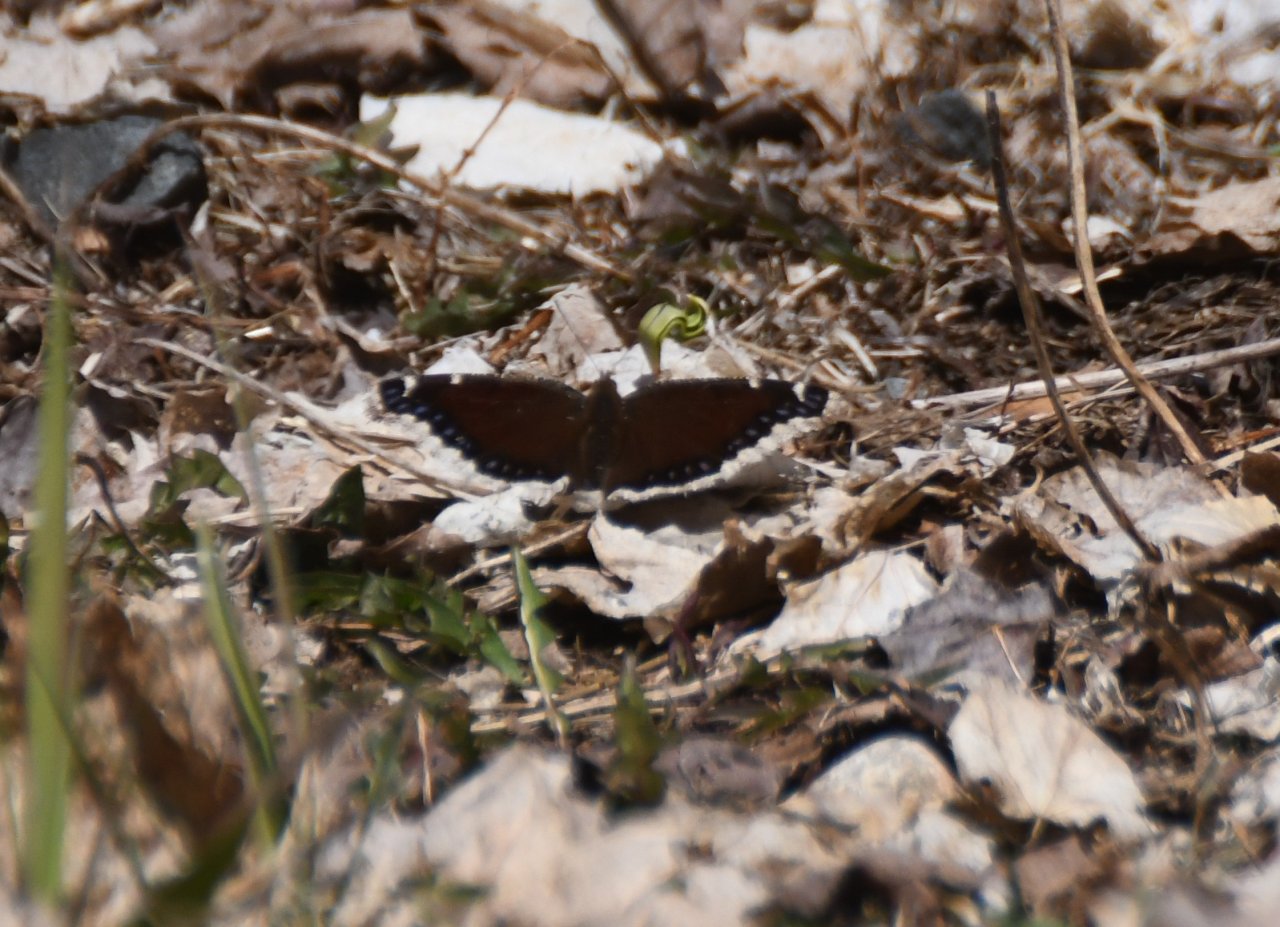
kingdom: Animalia
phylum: Arthropoda
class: Insecta
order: Lepidoptera
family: Nymphalidae
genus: Nymphalis
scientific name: Nymphalis antiopa
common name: Mourning Cloak
